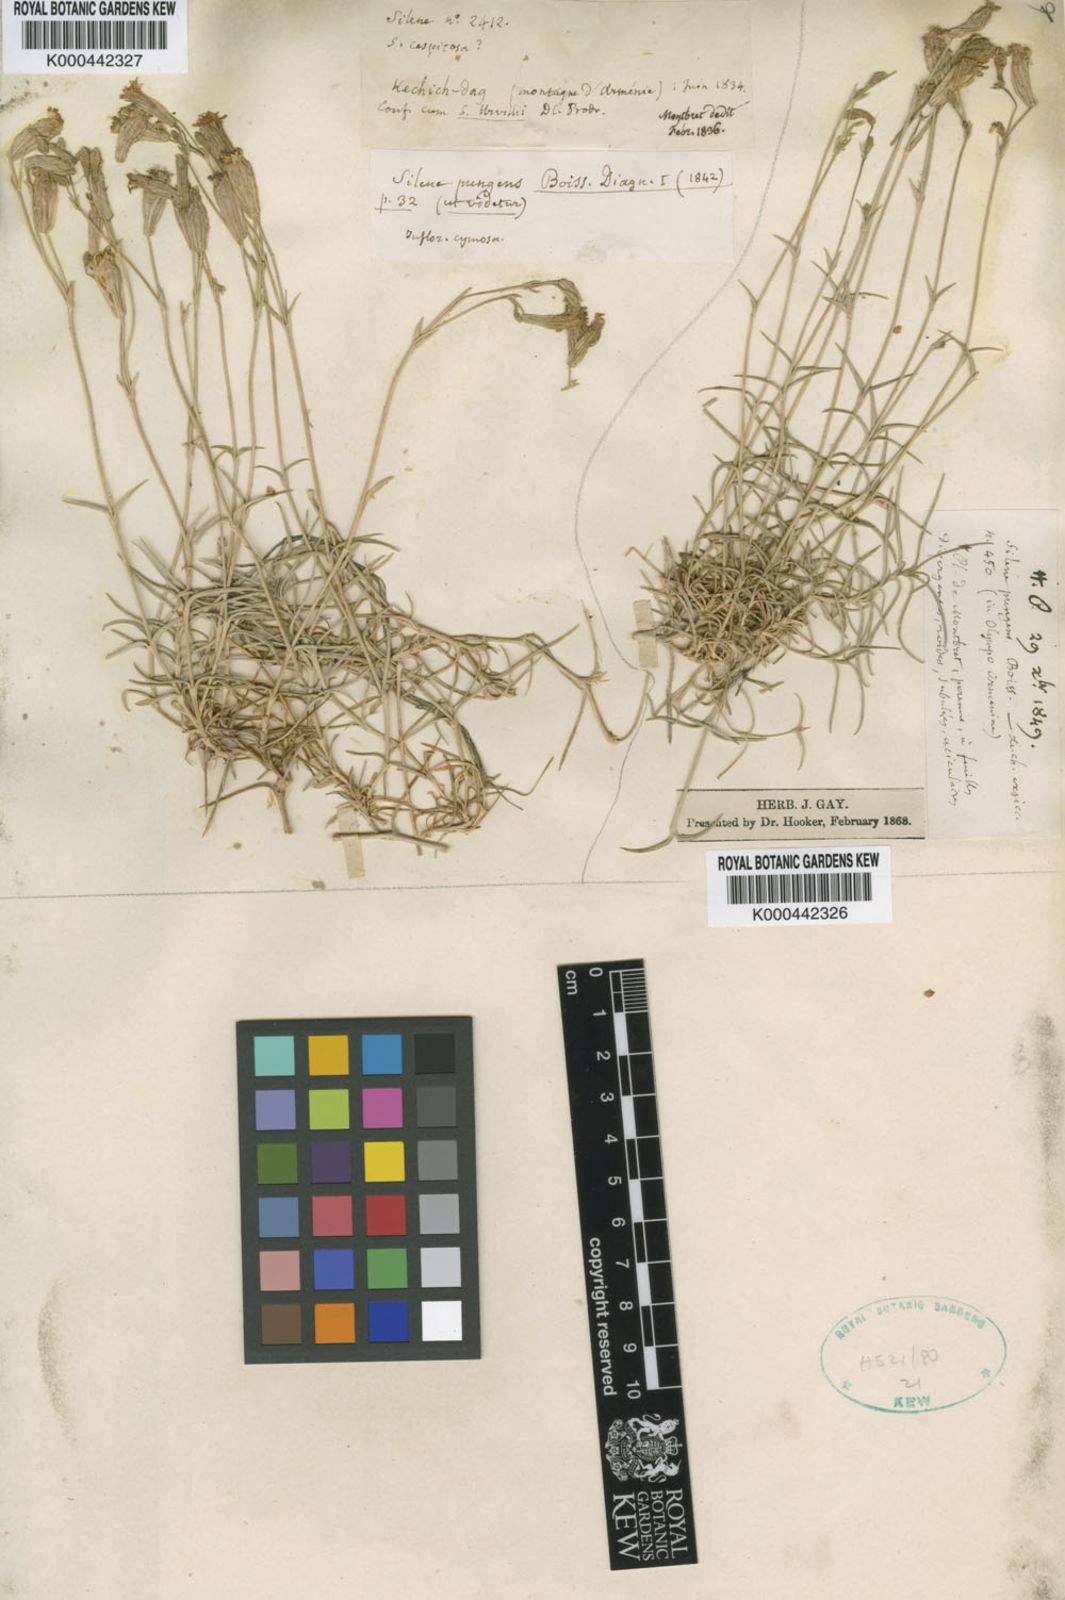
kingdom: Plantae
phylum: Tracheophyta
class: Magnoliopsida
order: Caryophyllales
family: Caryophyllaceae
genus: Silene
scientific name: Silene pungens
